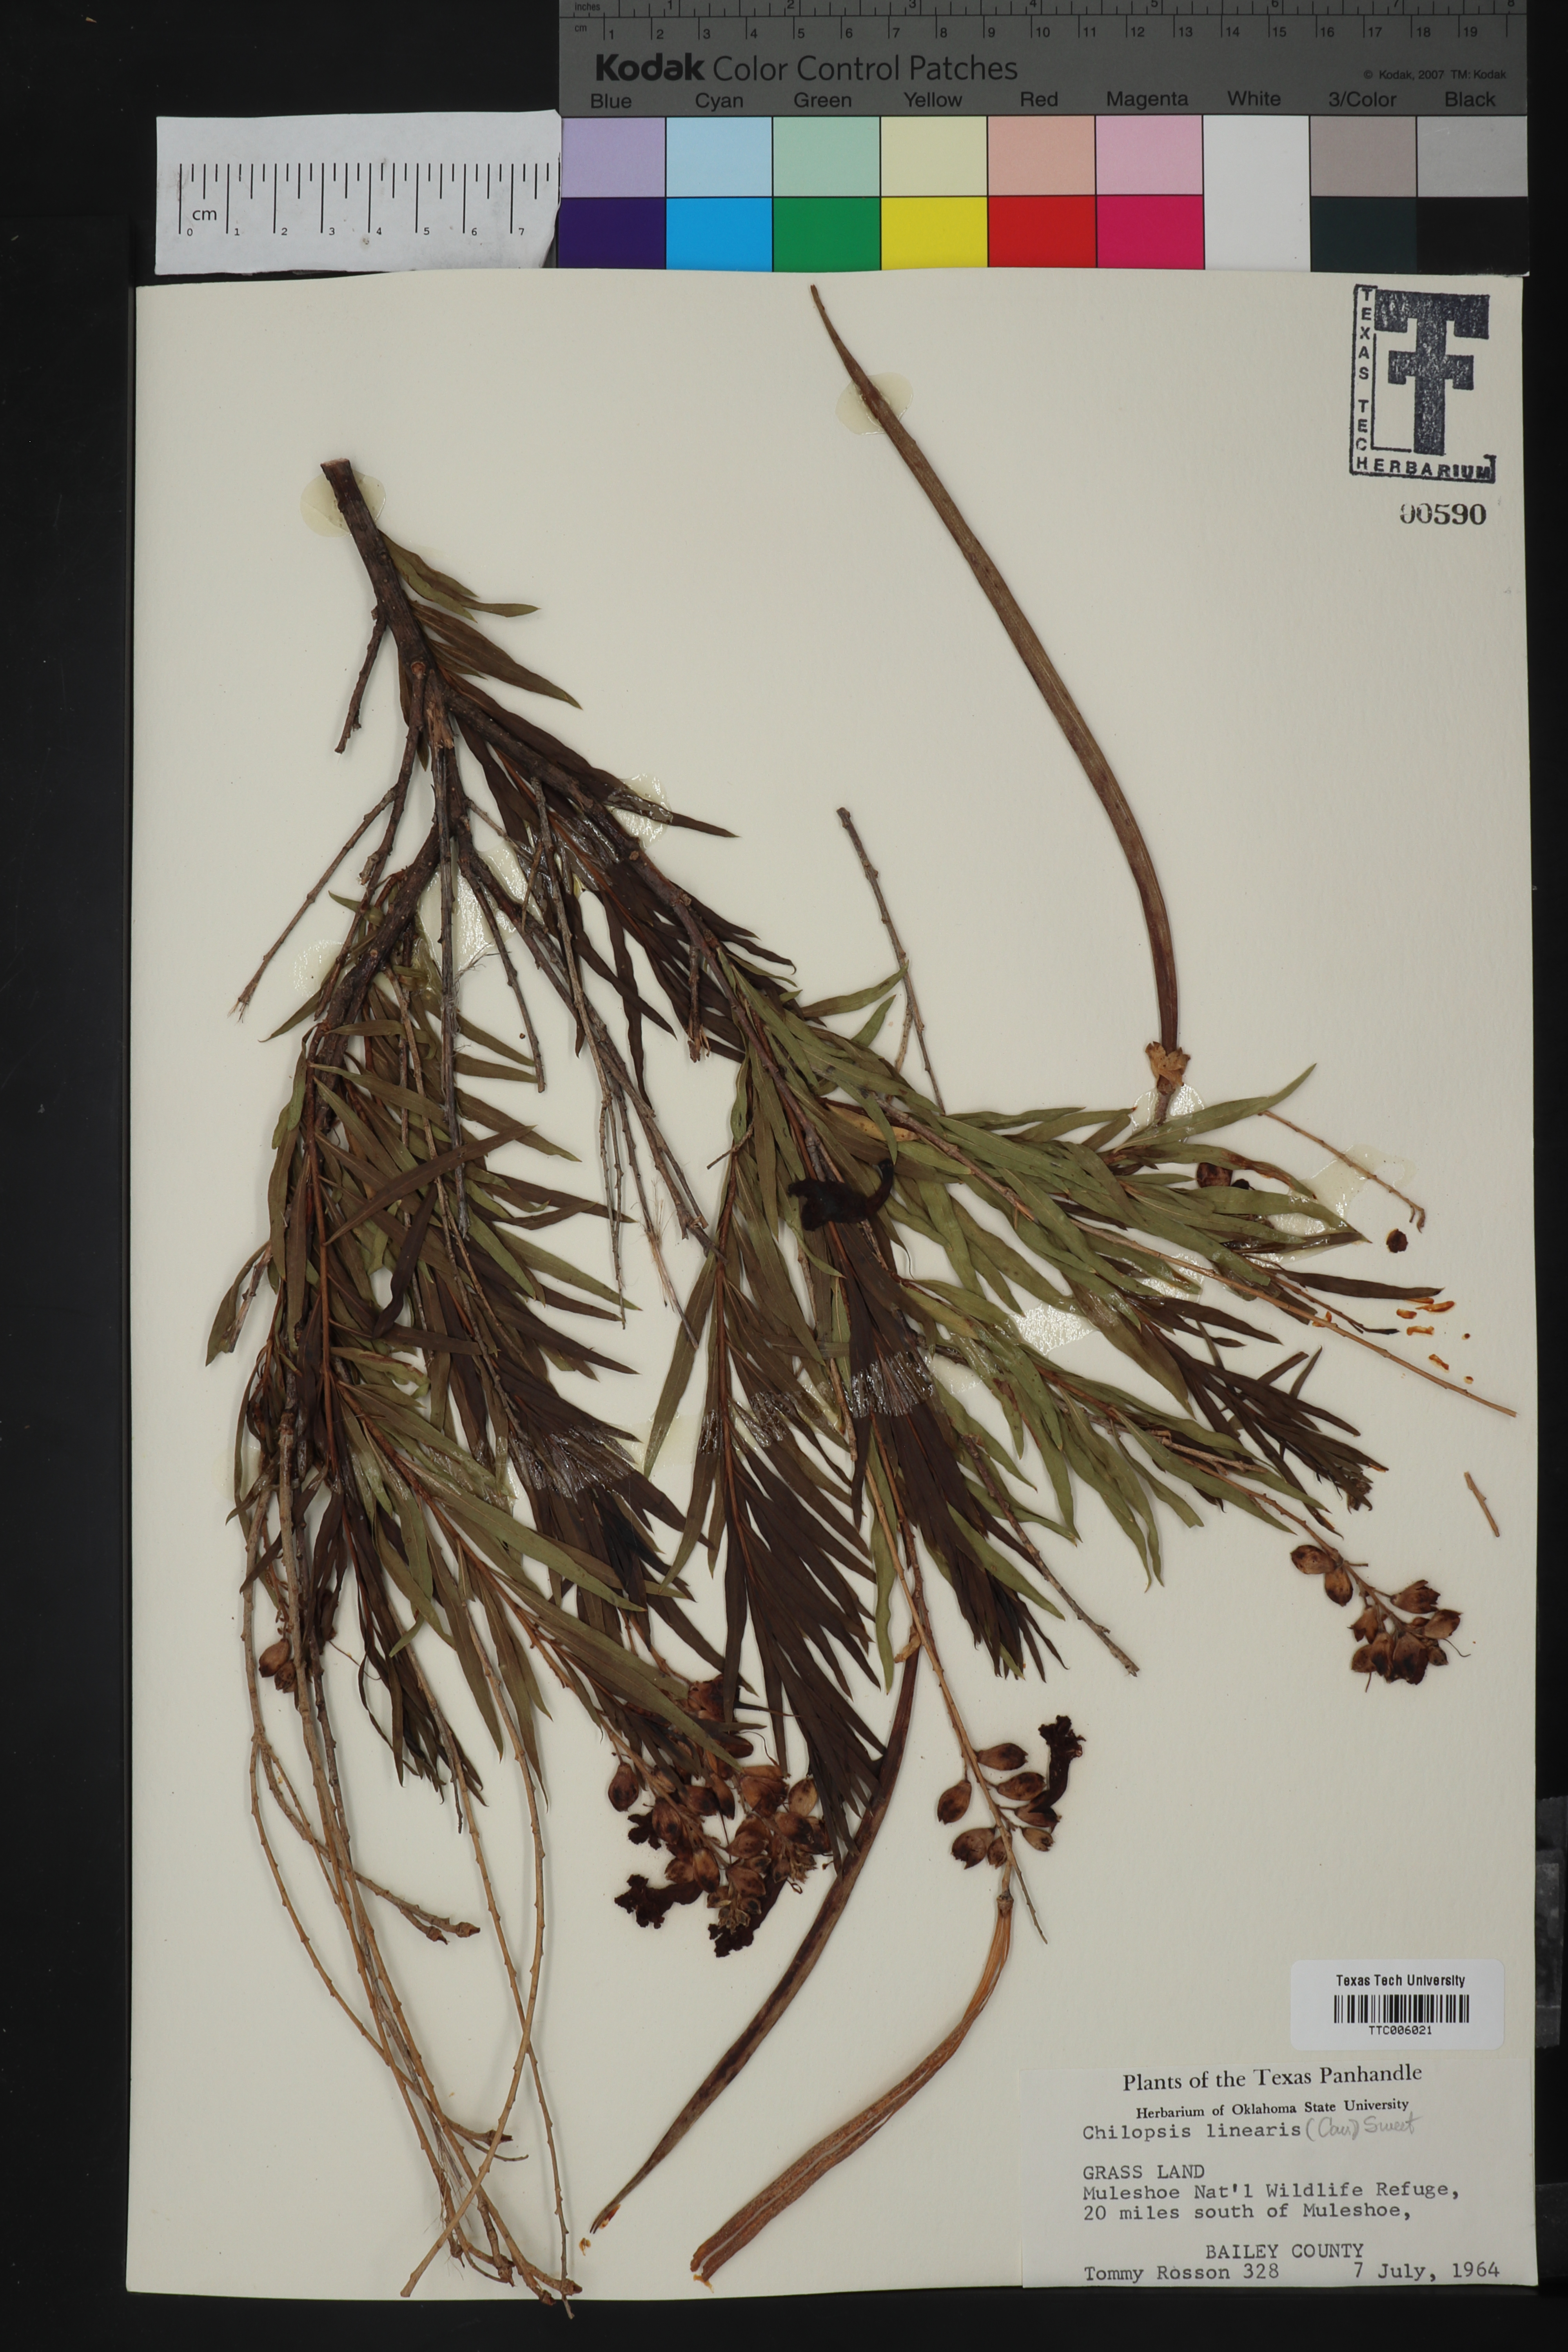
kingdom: Plantae
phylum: Tracheophyta
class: Magnoliopsida
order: Lamiales
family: Bignoniaceae
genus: Chilopsis
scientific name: Chilopsis linearis
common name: Desert-willow
